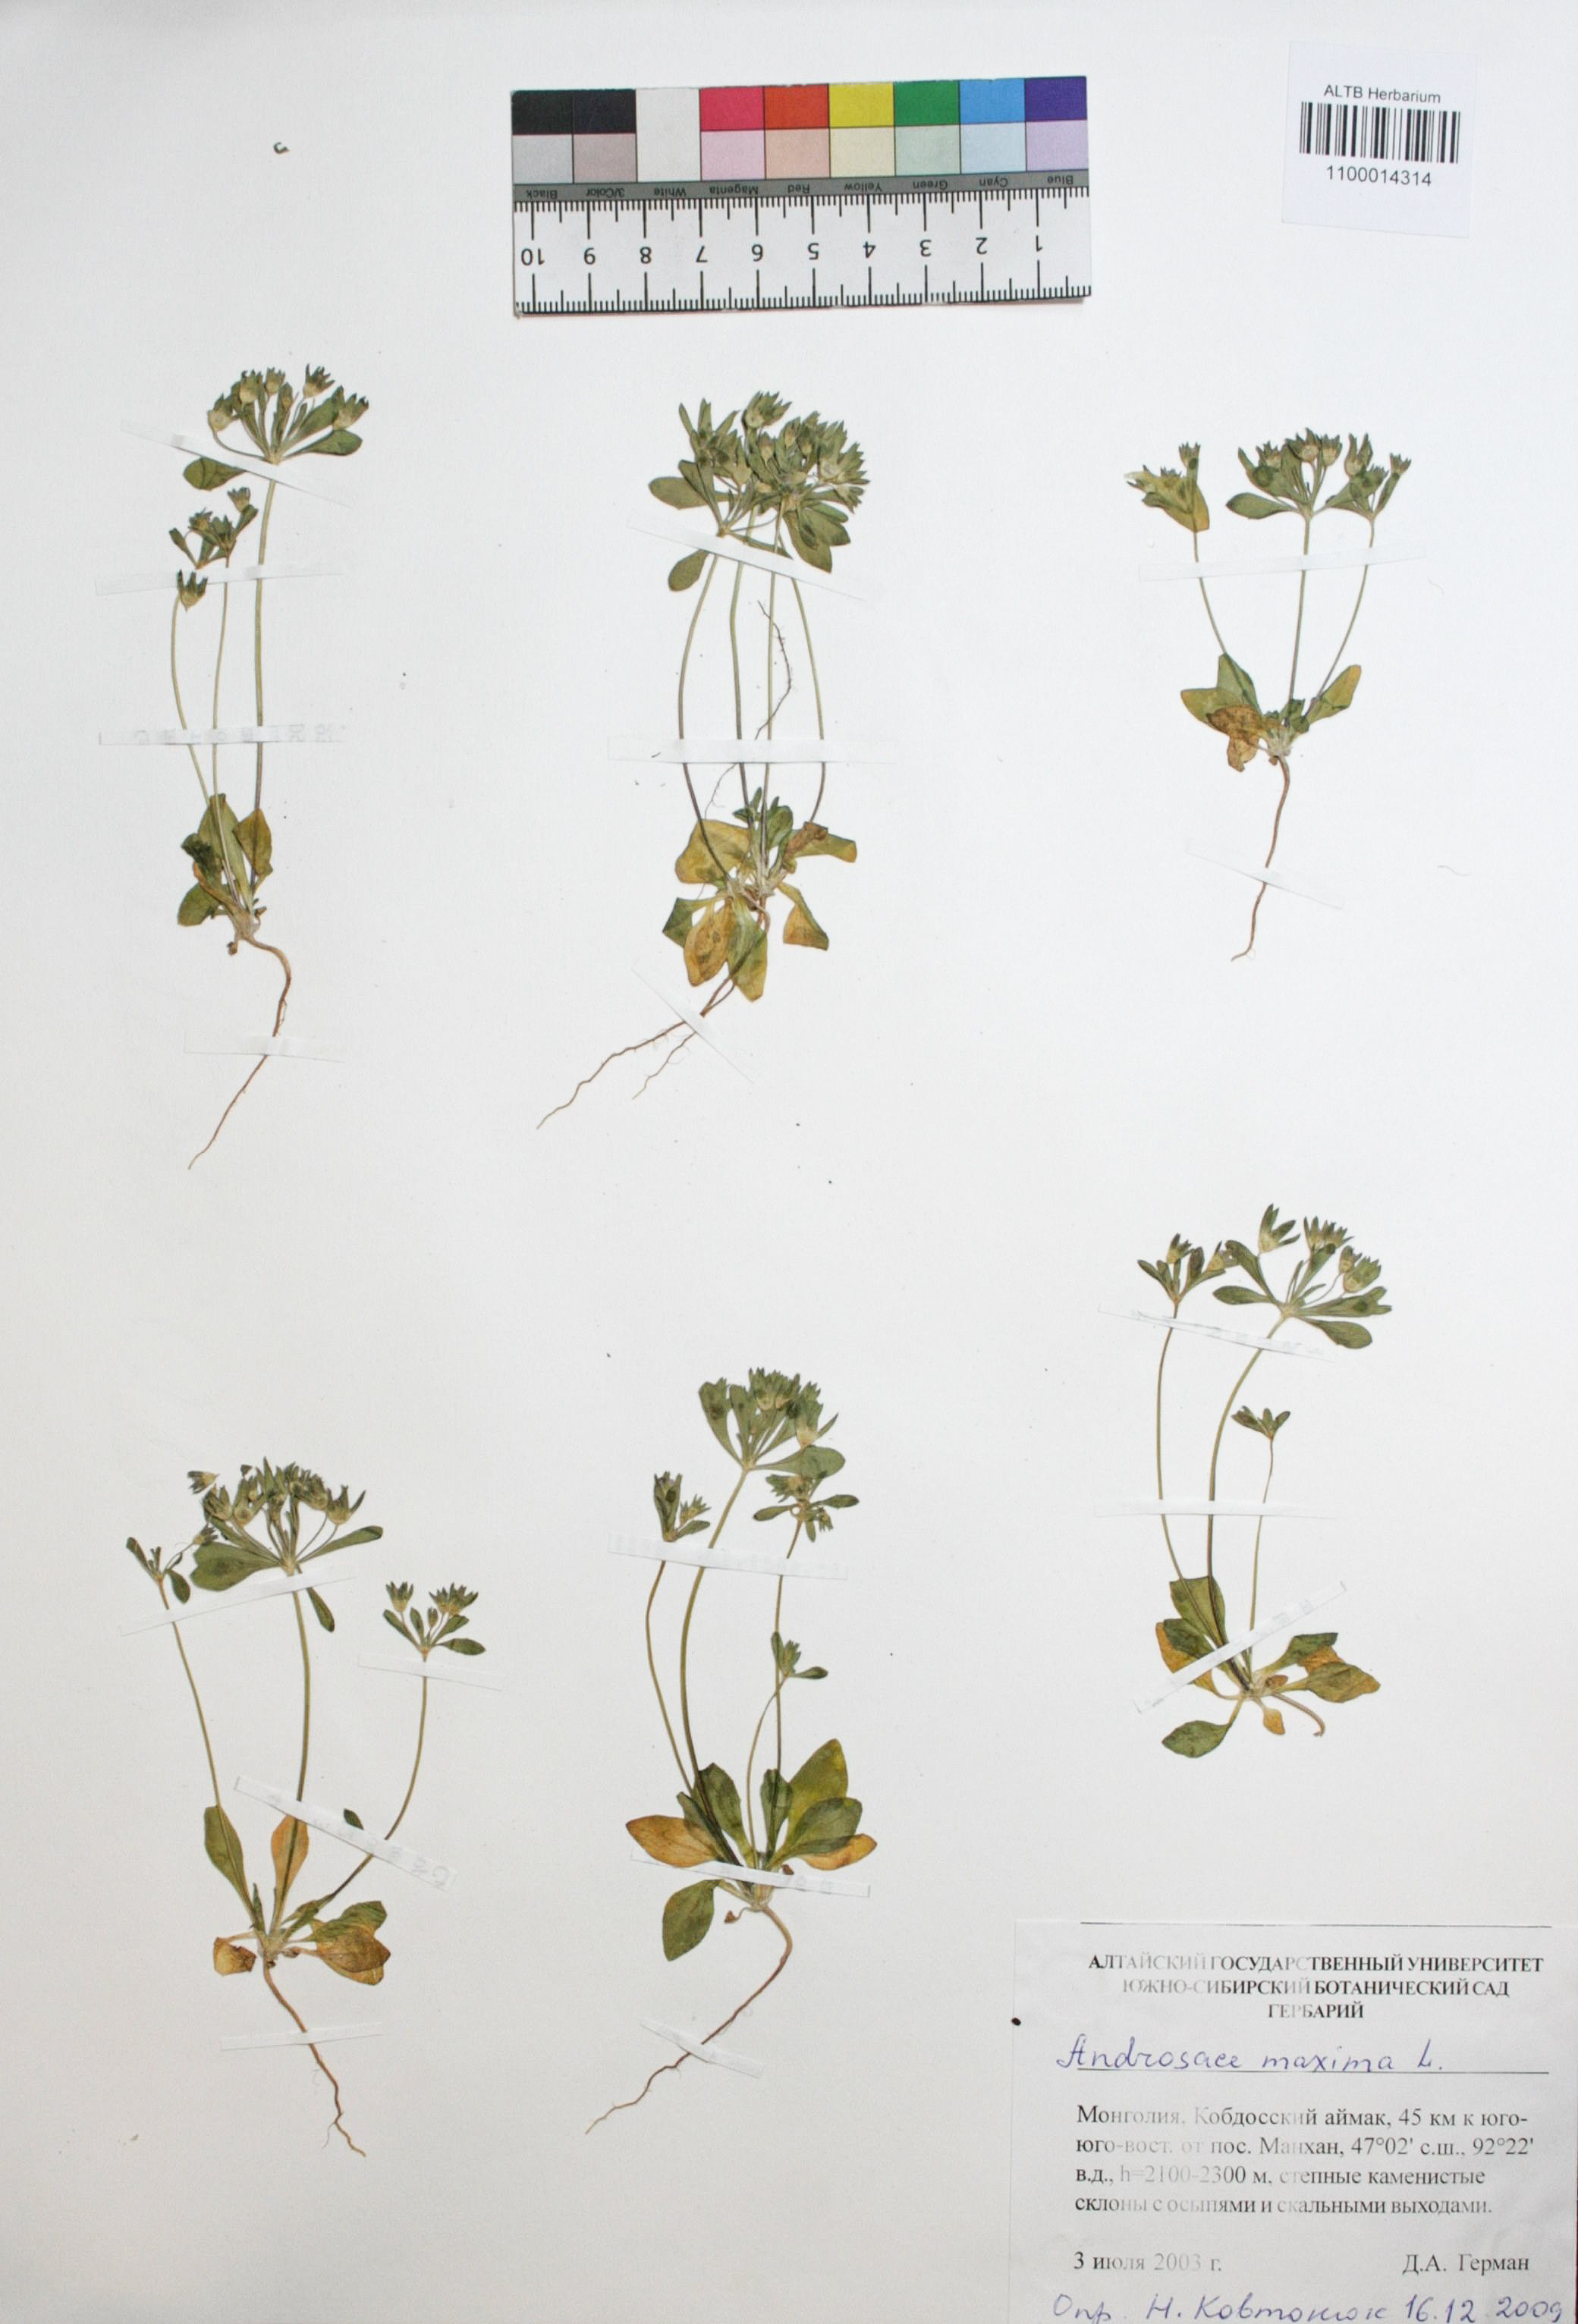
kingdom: Plantae
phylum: Tracheophyta
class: Magnoliopsida
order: Ericales
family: Primulaceae
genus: Androsace
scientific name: Androsace maxima
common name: Annual androsace
